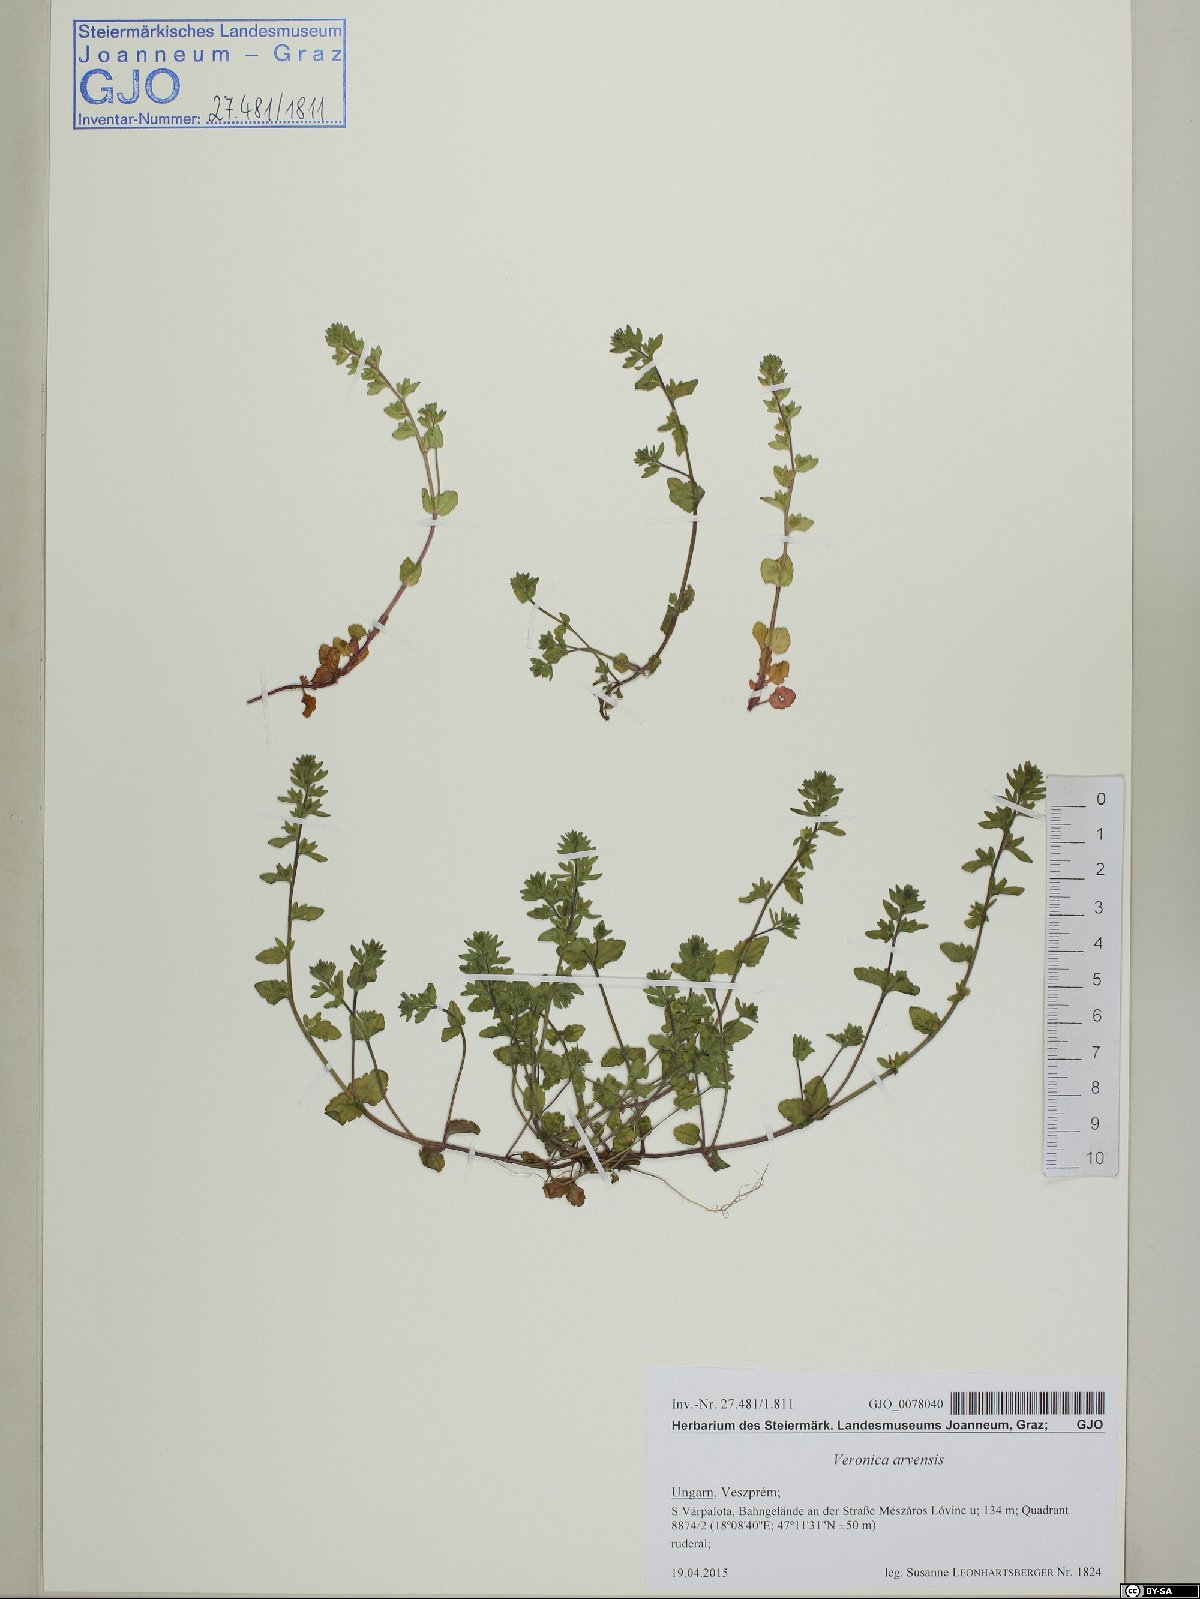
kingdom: Plantae
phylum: Tracheophyta
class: Magnoliopsida
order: Lamiales
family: Plantaginaceae
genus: Veronica
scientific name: Veronica arvensis
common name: Corn speedwell
